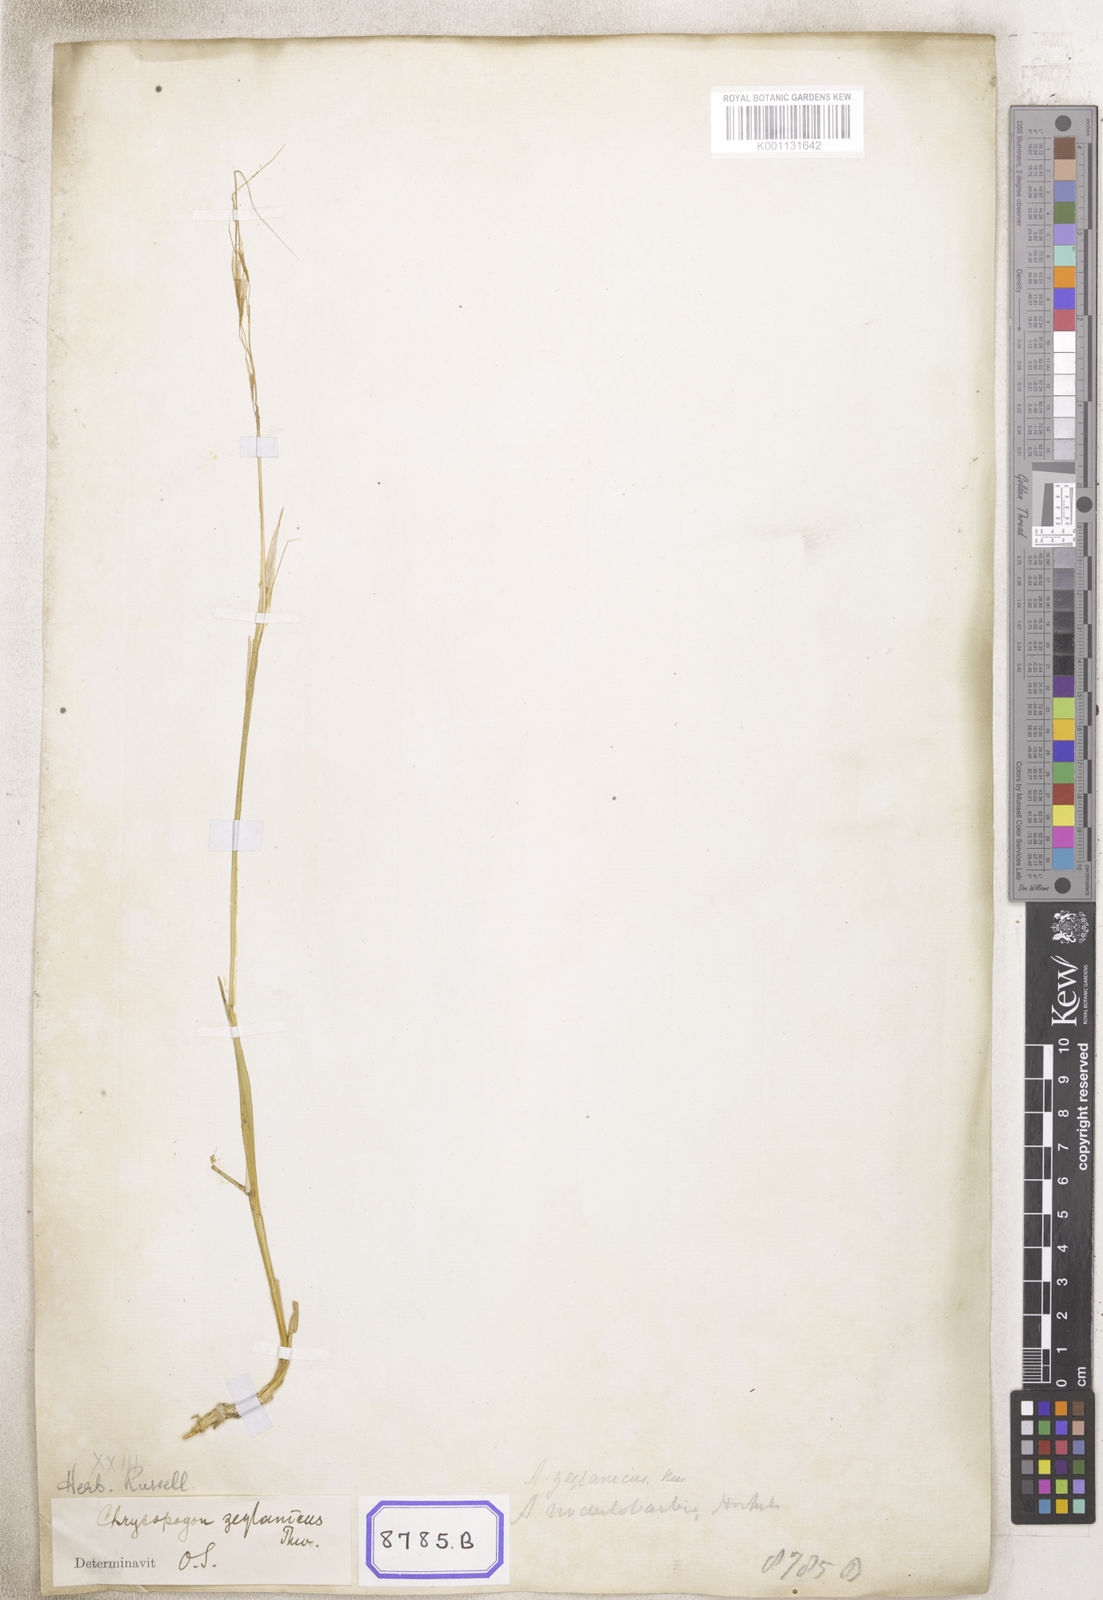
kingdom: Plantae
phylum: Tracheophyta
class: Liliopsida
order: Poales
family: Poaceae
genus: Chrysopogon
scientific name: Chrysopogon
